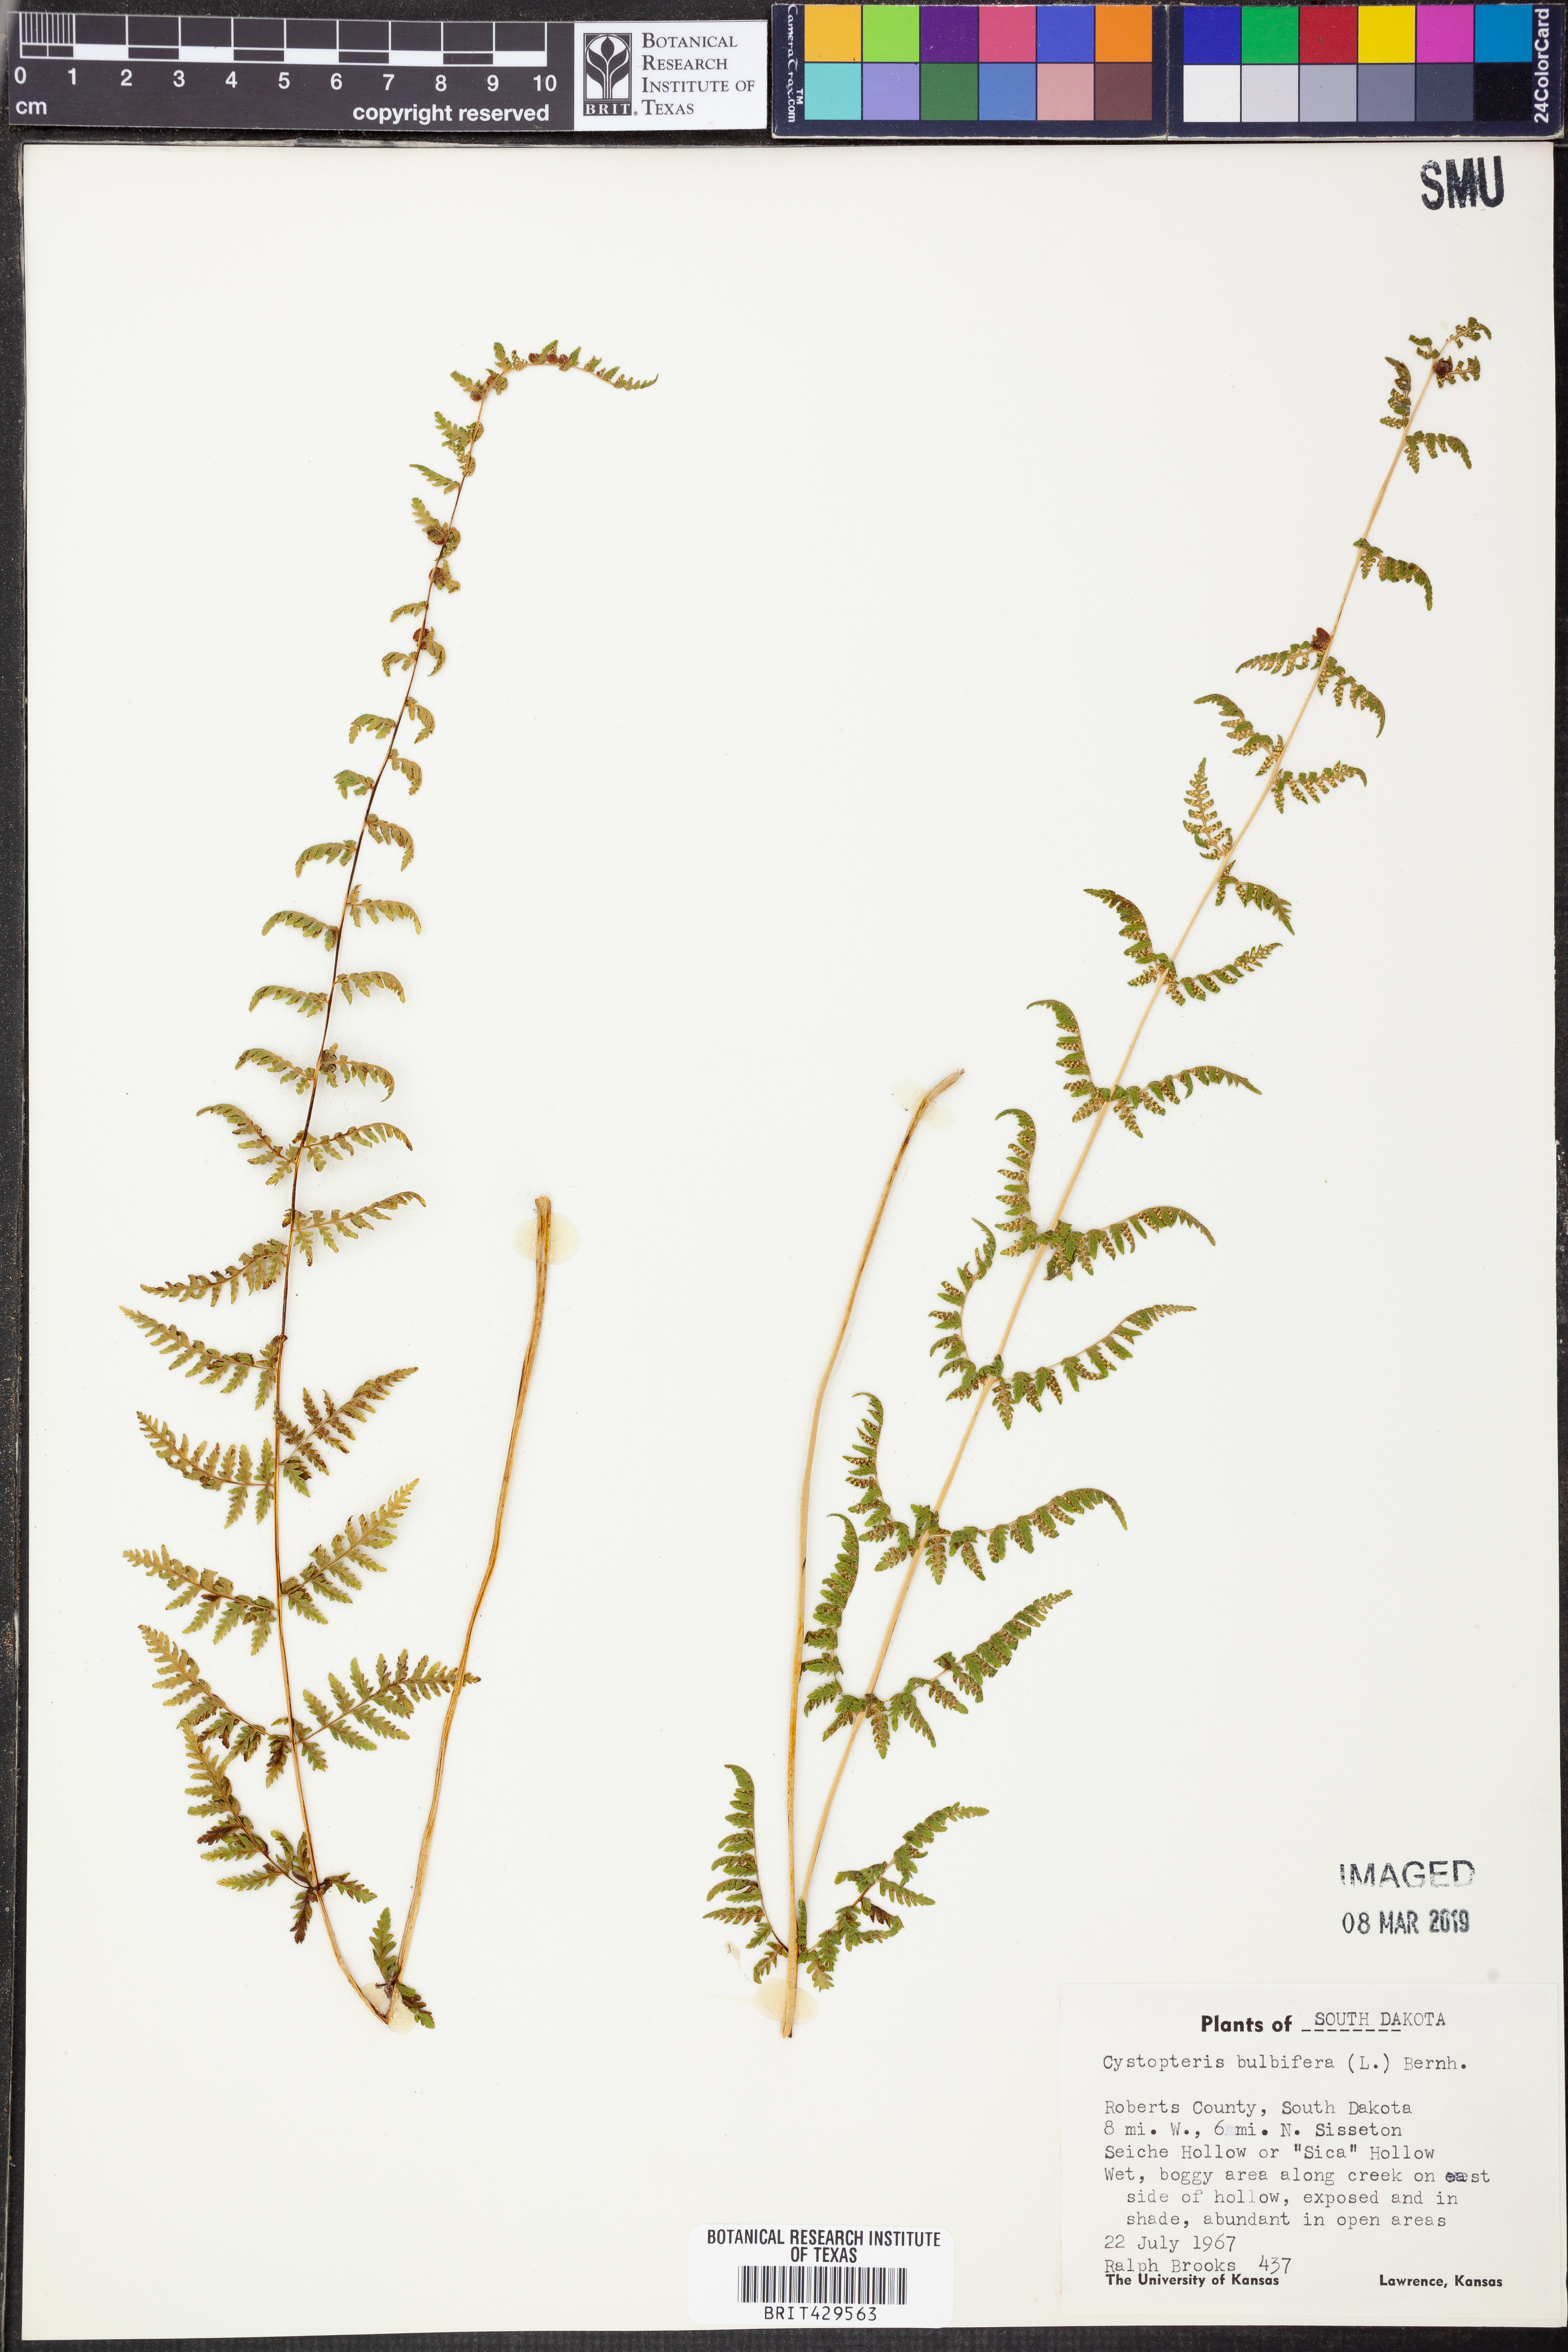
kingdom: Plantae
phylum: Tracheophyta
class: Polypodiopsida
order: Polypodiales
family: Cystopteridaceae
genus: Cystopteris
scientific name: Cystopteris bulbifera
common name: Bulblet bladder fern
